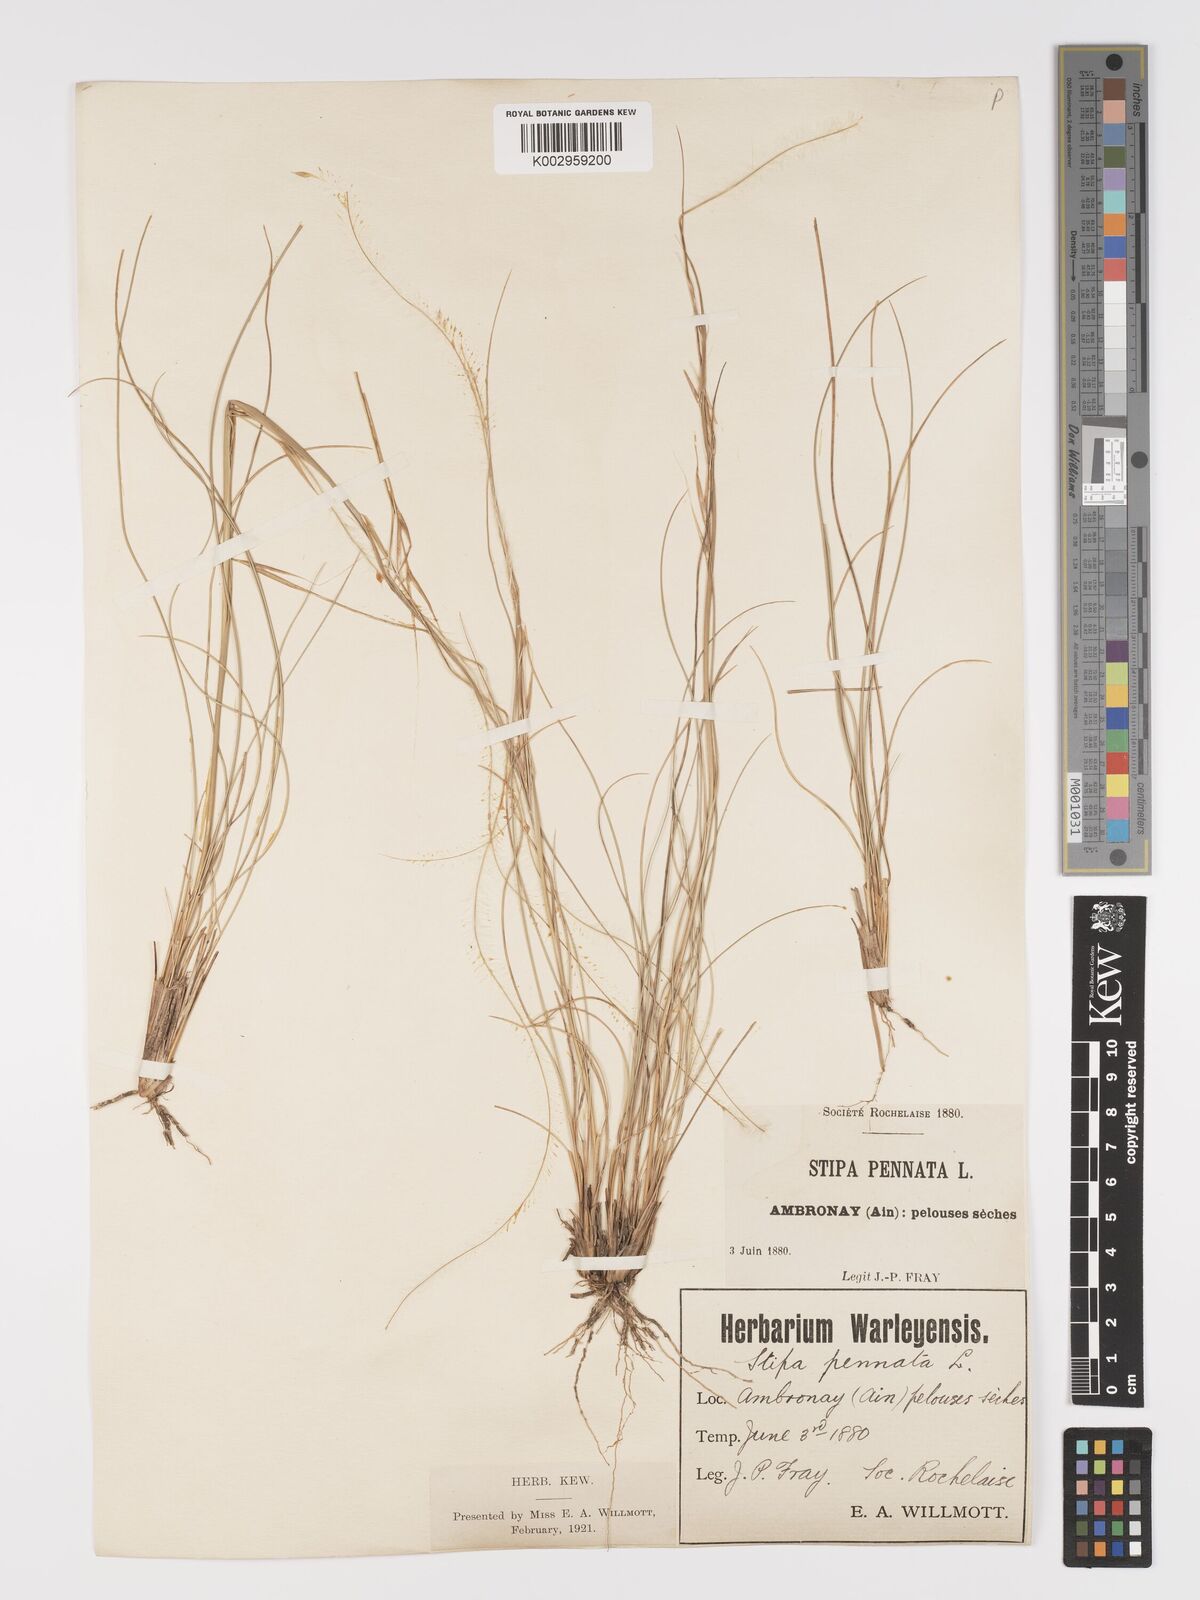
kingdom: Plantae
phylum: Tracheophyta
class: Liliopsida
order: Poales
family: Poaceae
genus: Stipa
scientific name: Stipa pennata
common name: European feather grass
